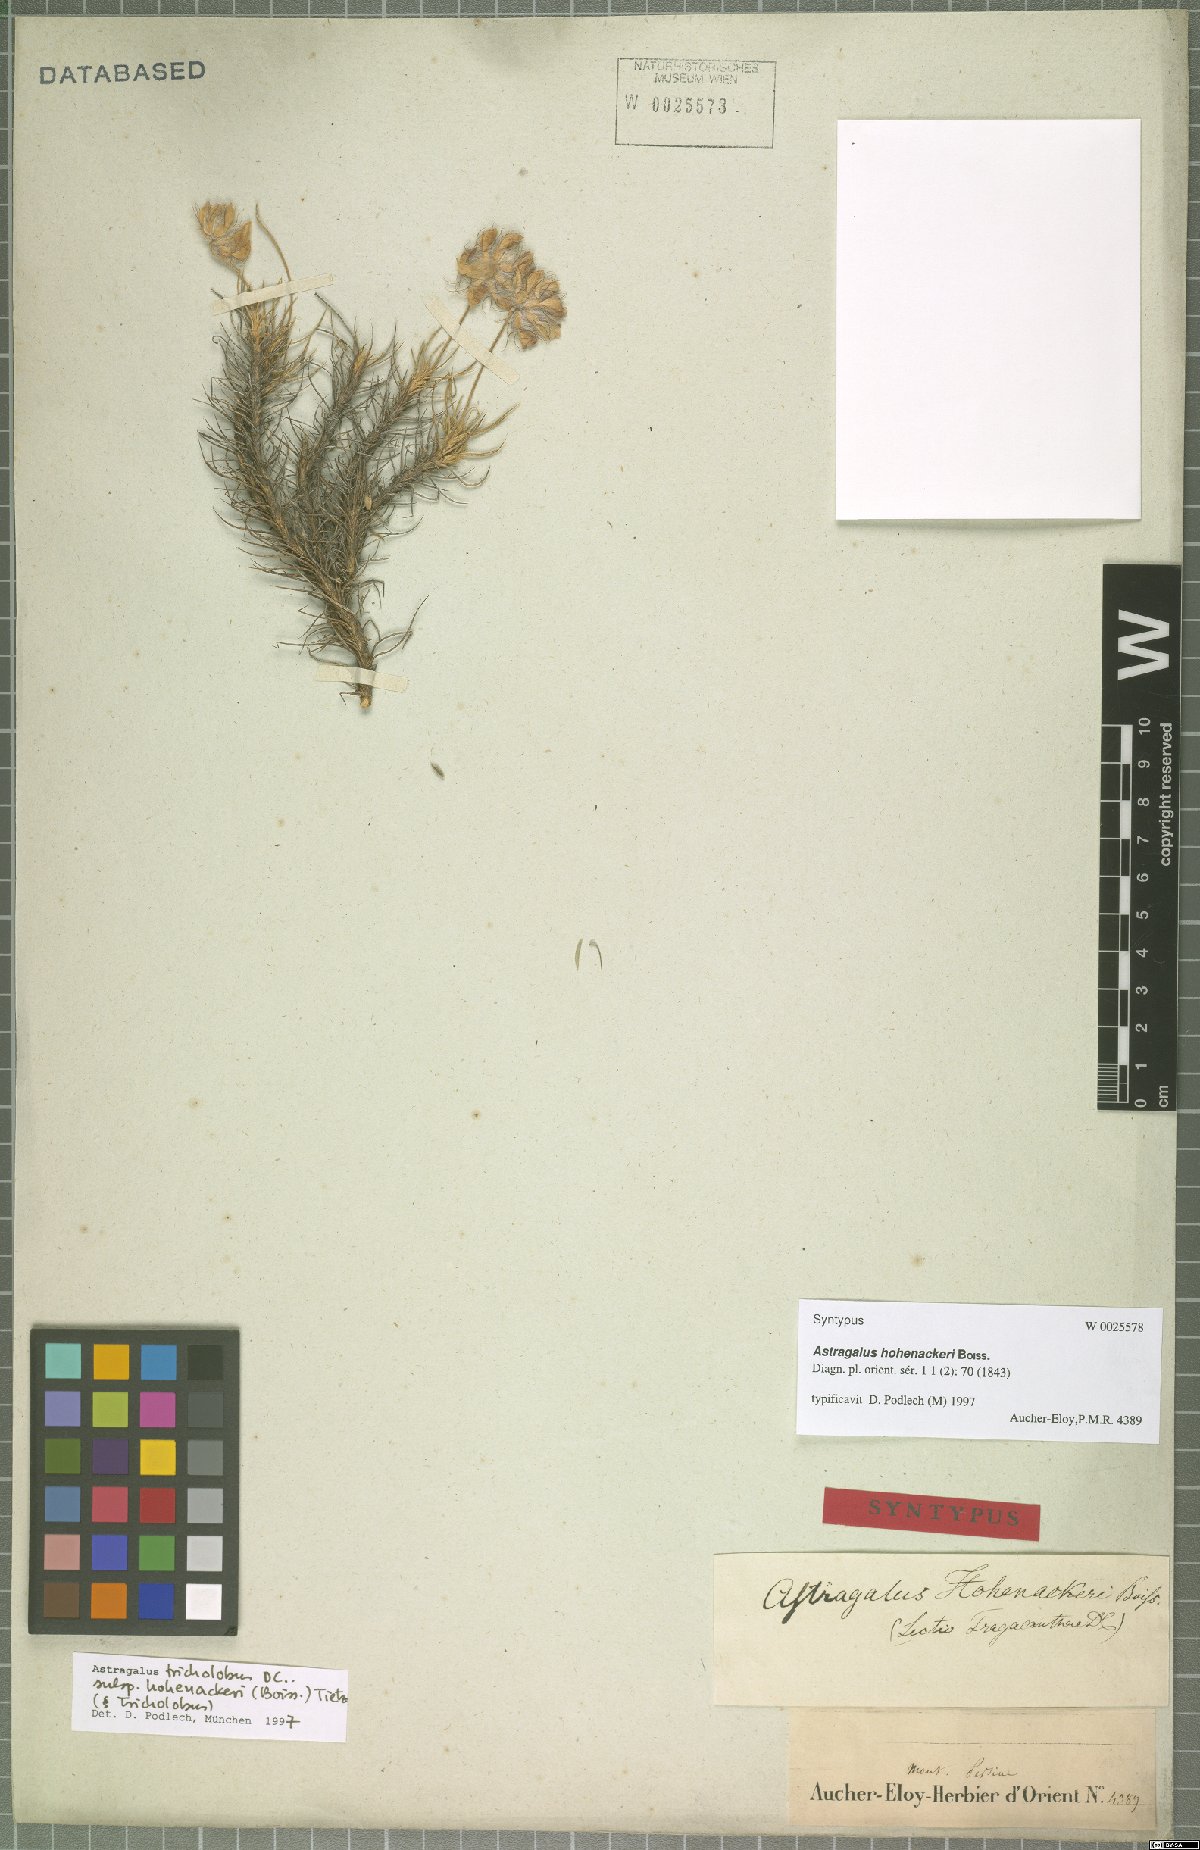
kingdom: Plantae
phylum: Tracheophyta
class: Magnoliopsida
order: Fabales
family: Fabaceae
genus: Astragalus
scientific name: Astragalus hohenackeri
